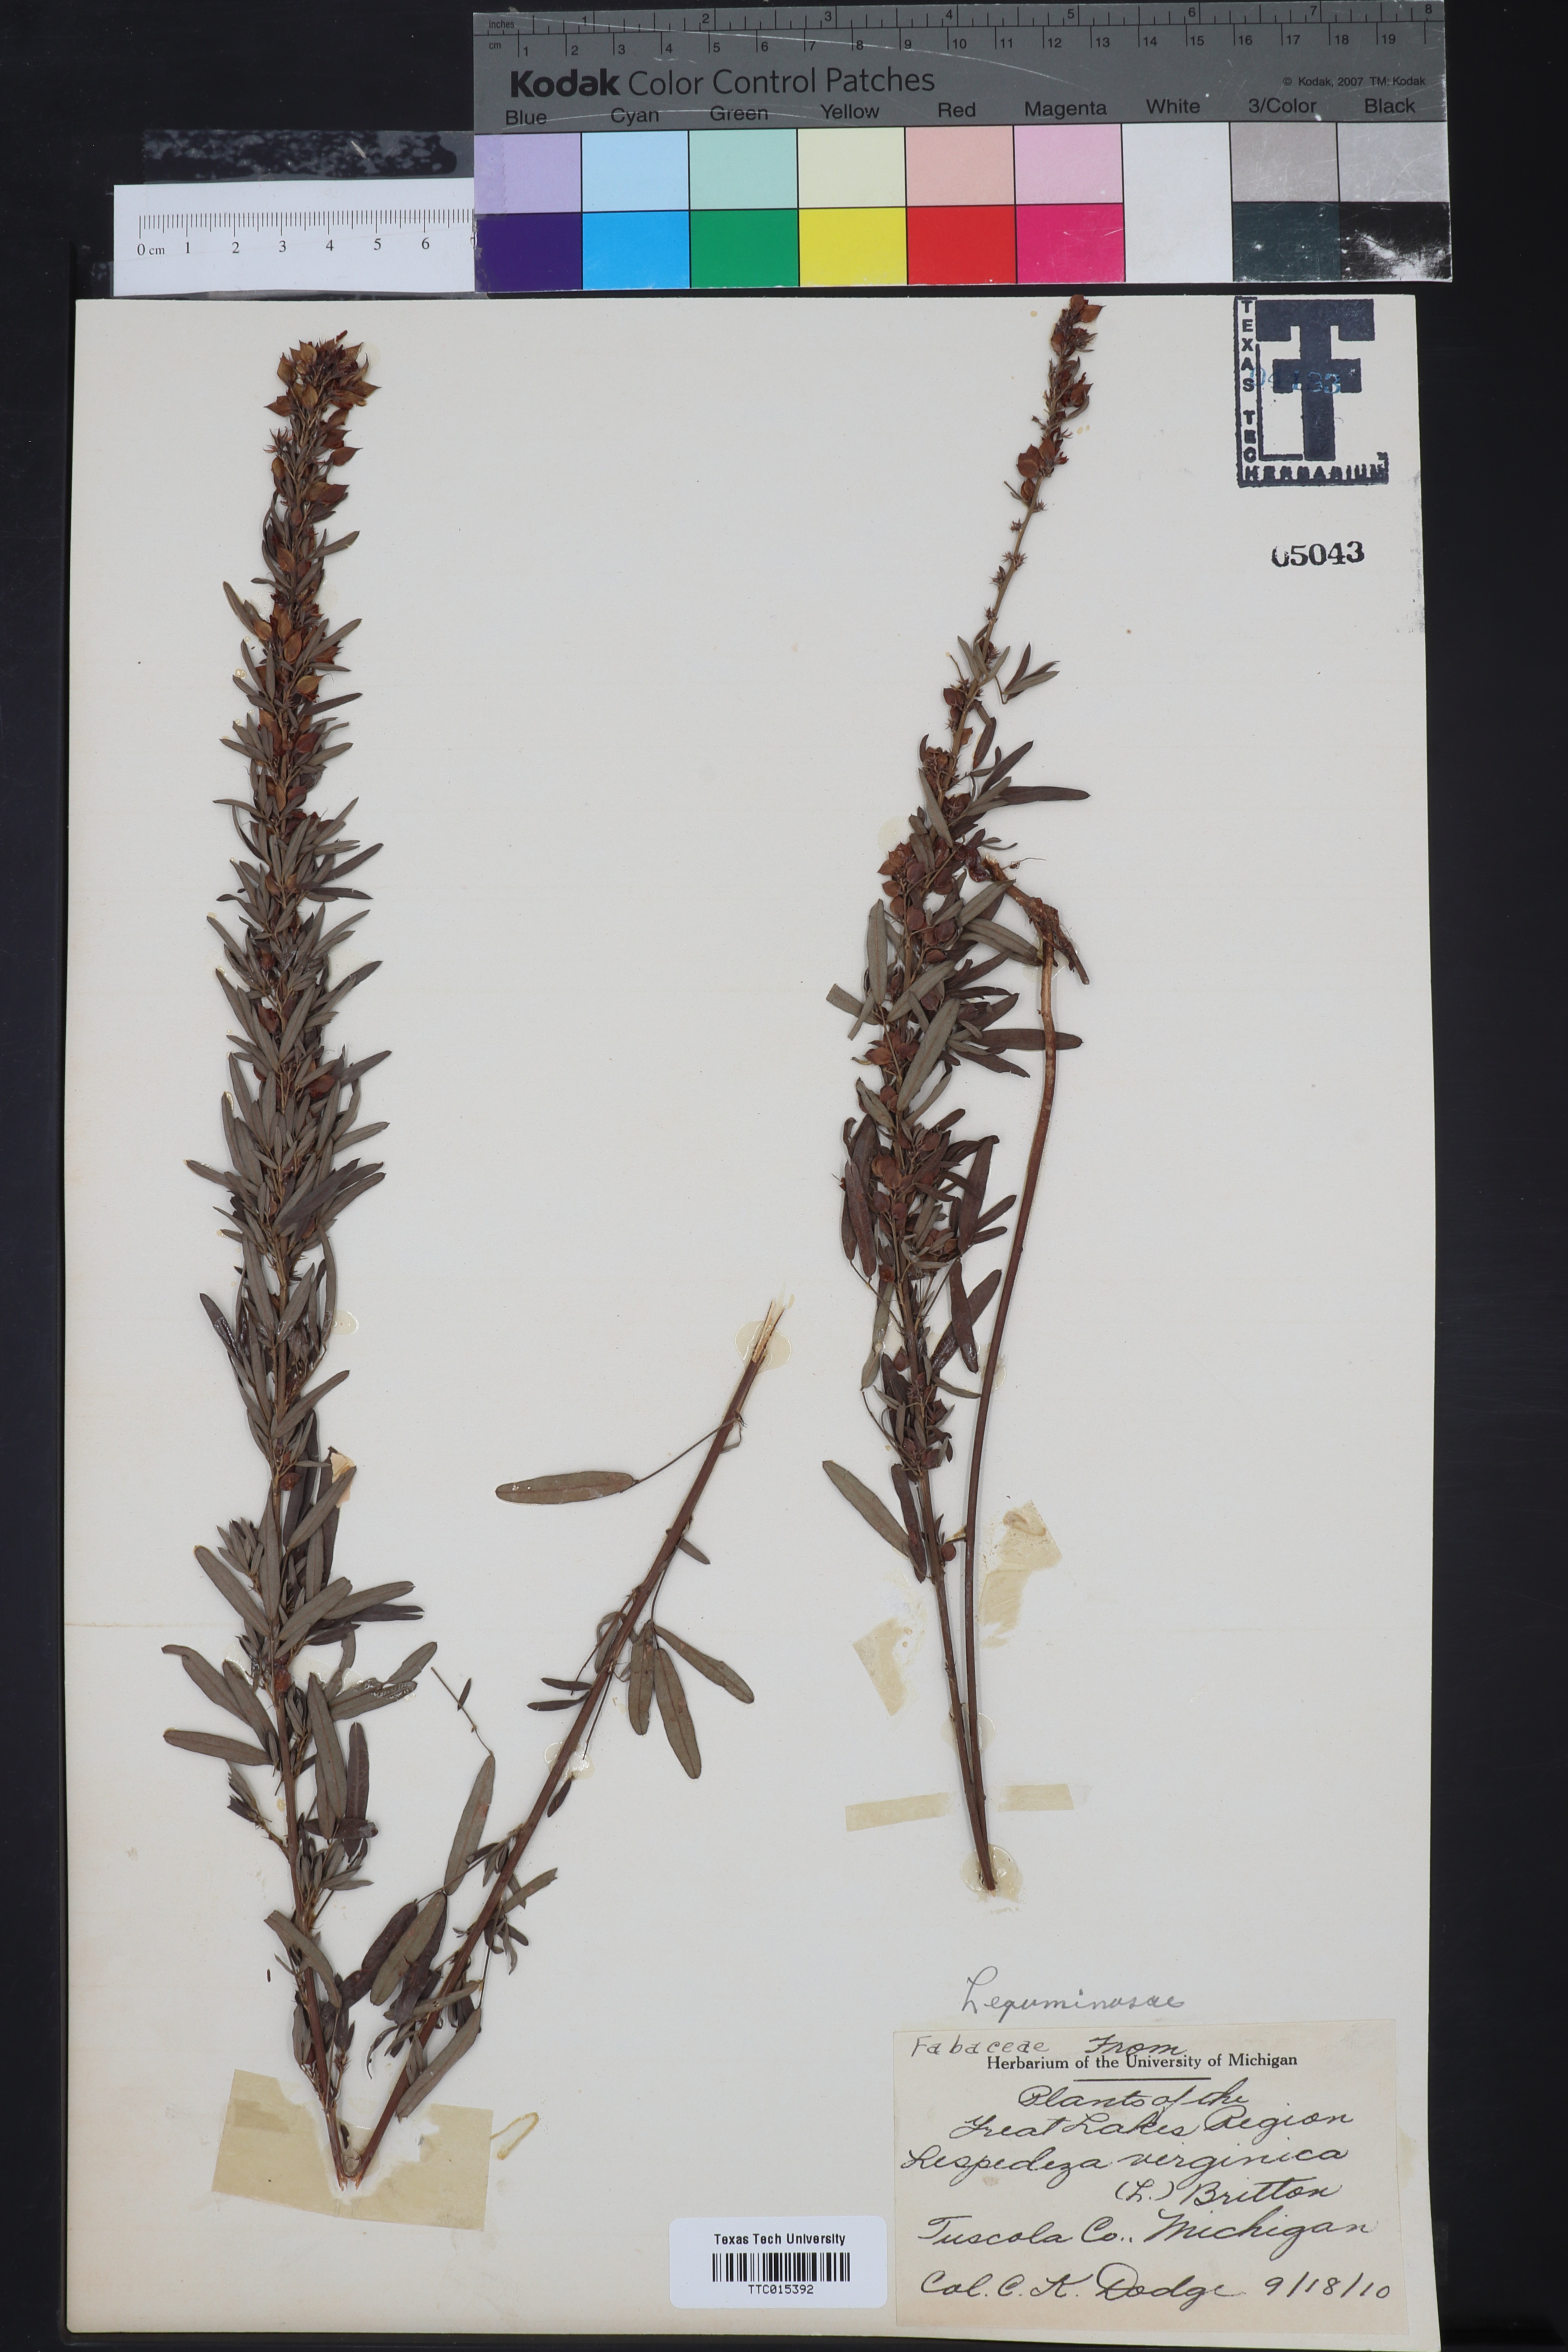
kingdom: Plantae
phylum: Tracheophyta
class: Magnoliopsida
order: Fabales
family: Fabaceae
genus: Lespedeza
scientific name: Lespedeza violacea
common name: Wand bush-clover
